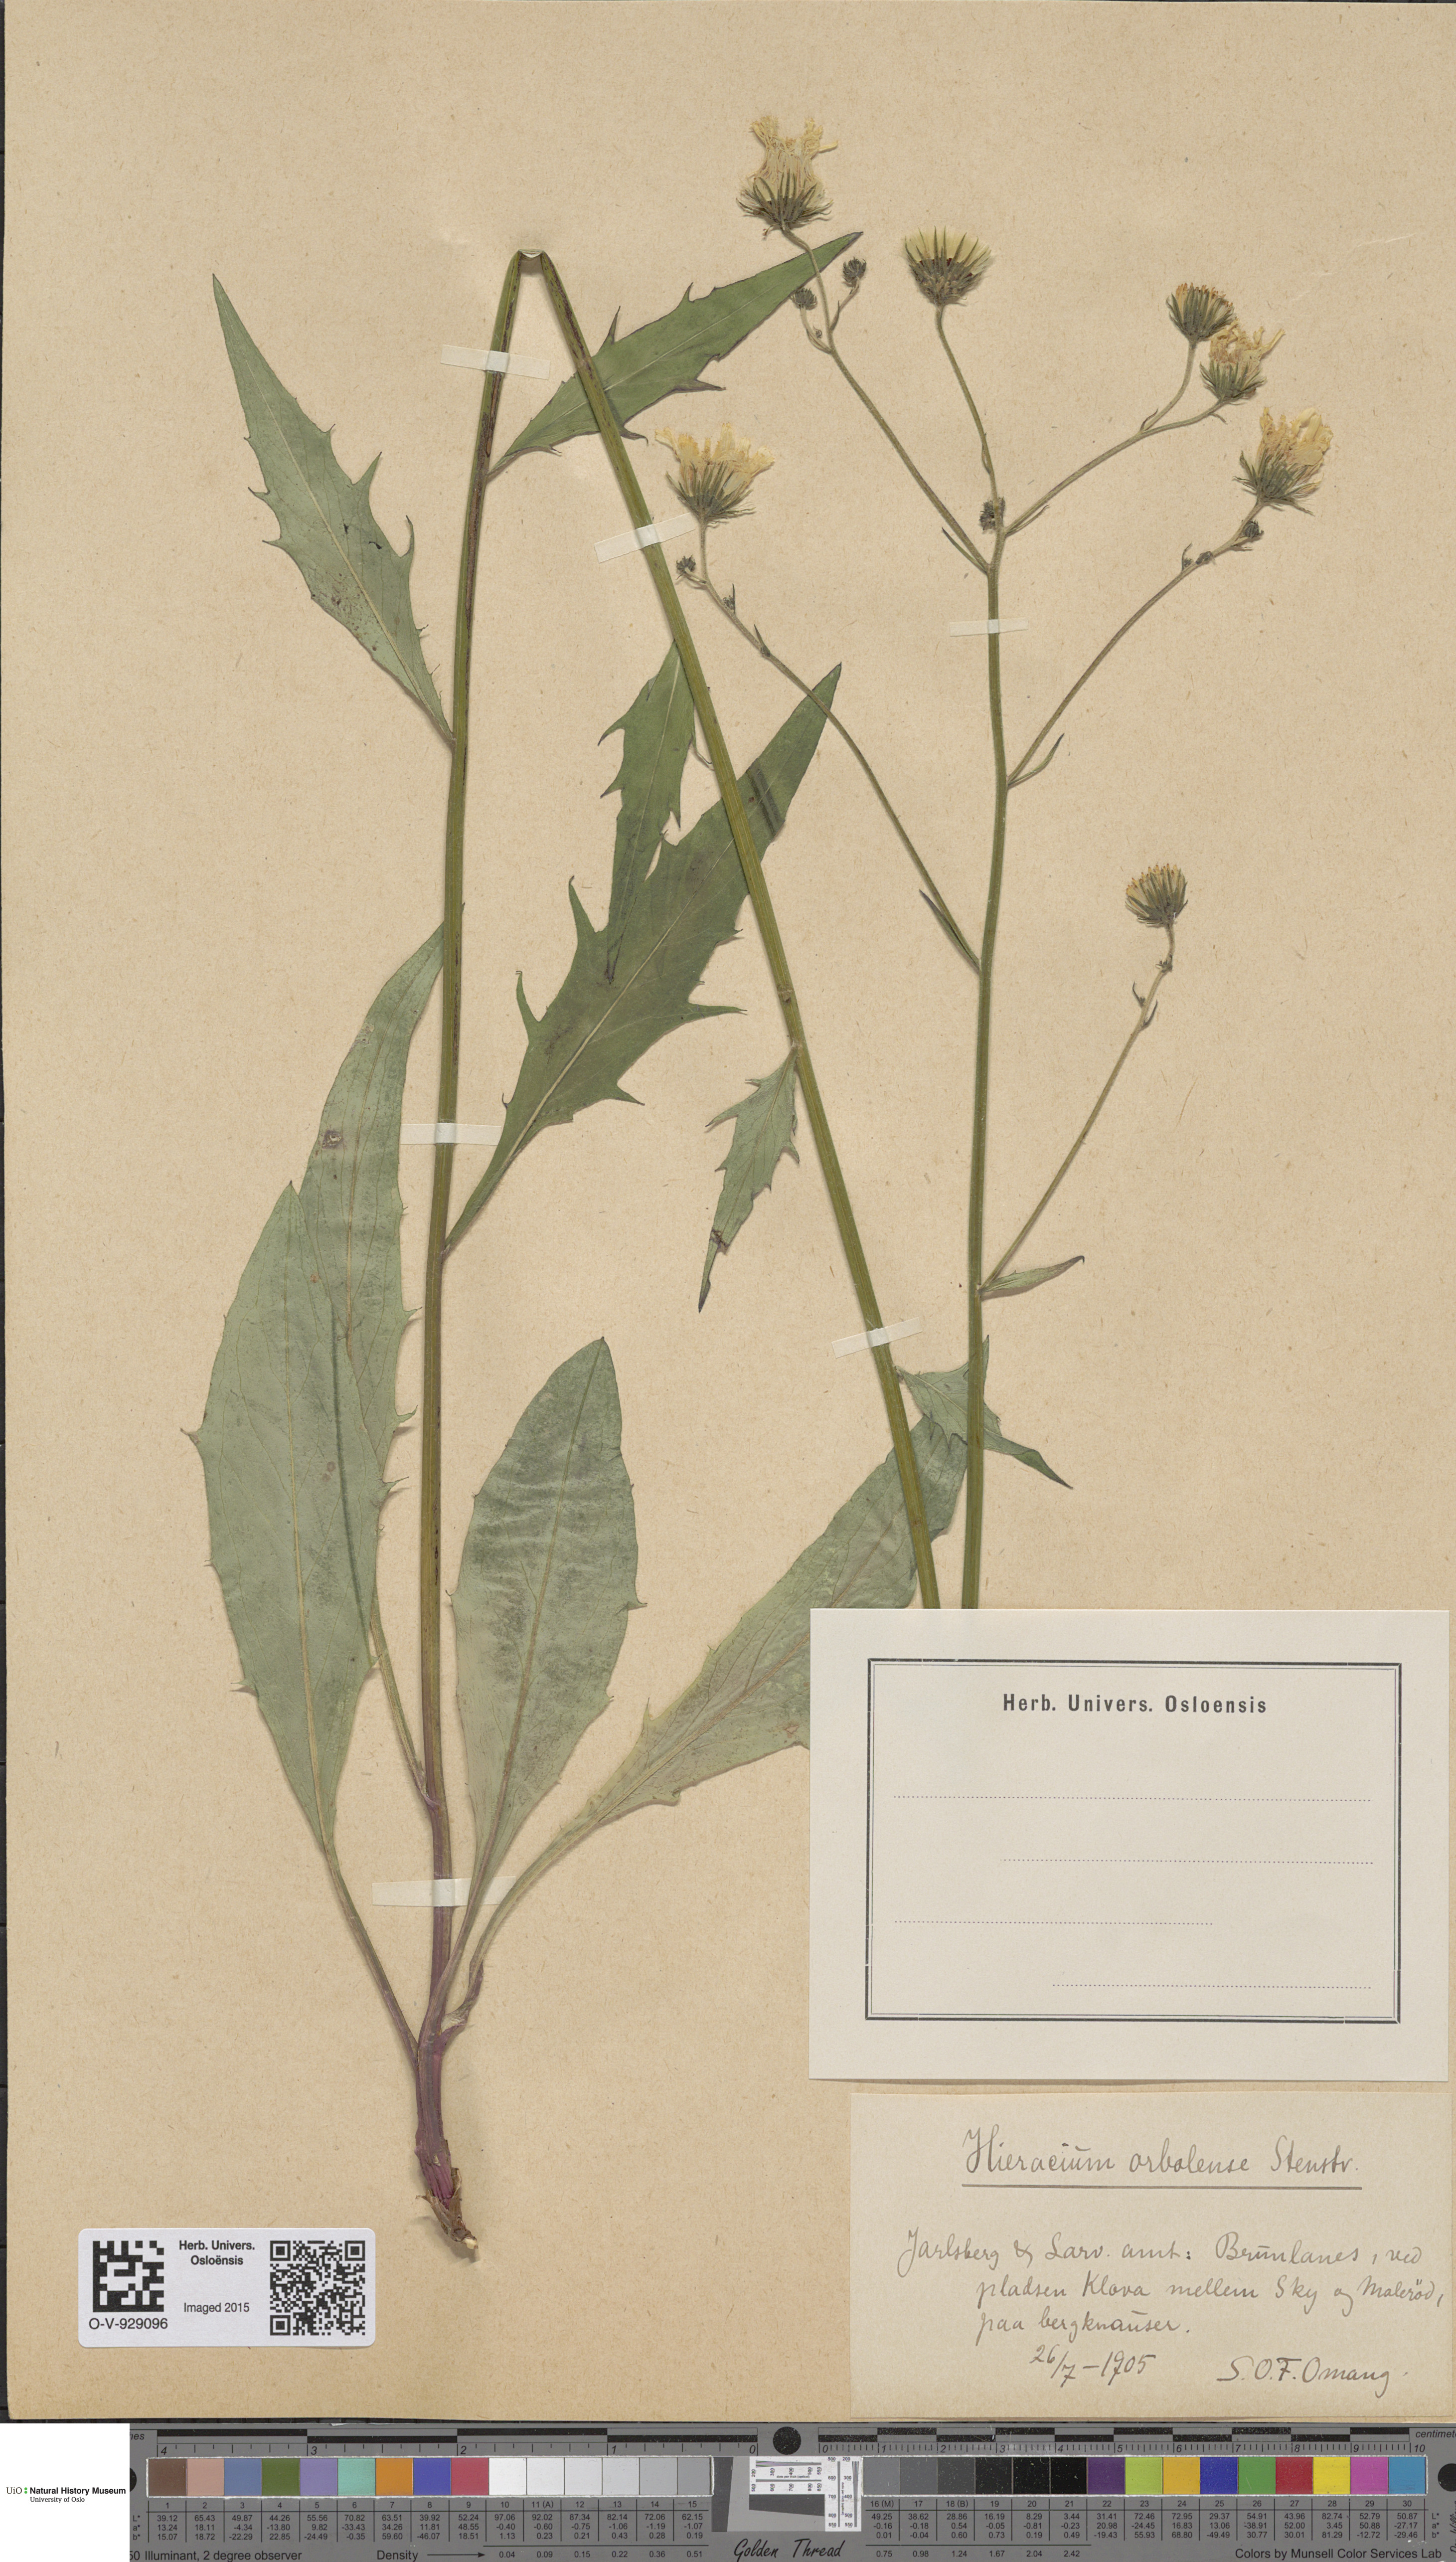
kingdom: Plantae
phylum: Tracheophyta
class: Magnoliopsida
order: Asterales
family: Asteraceae
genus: Hieracium
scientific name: Hieracium orbolense
